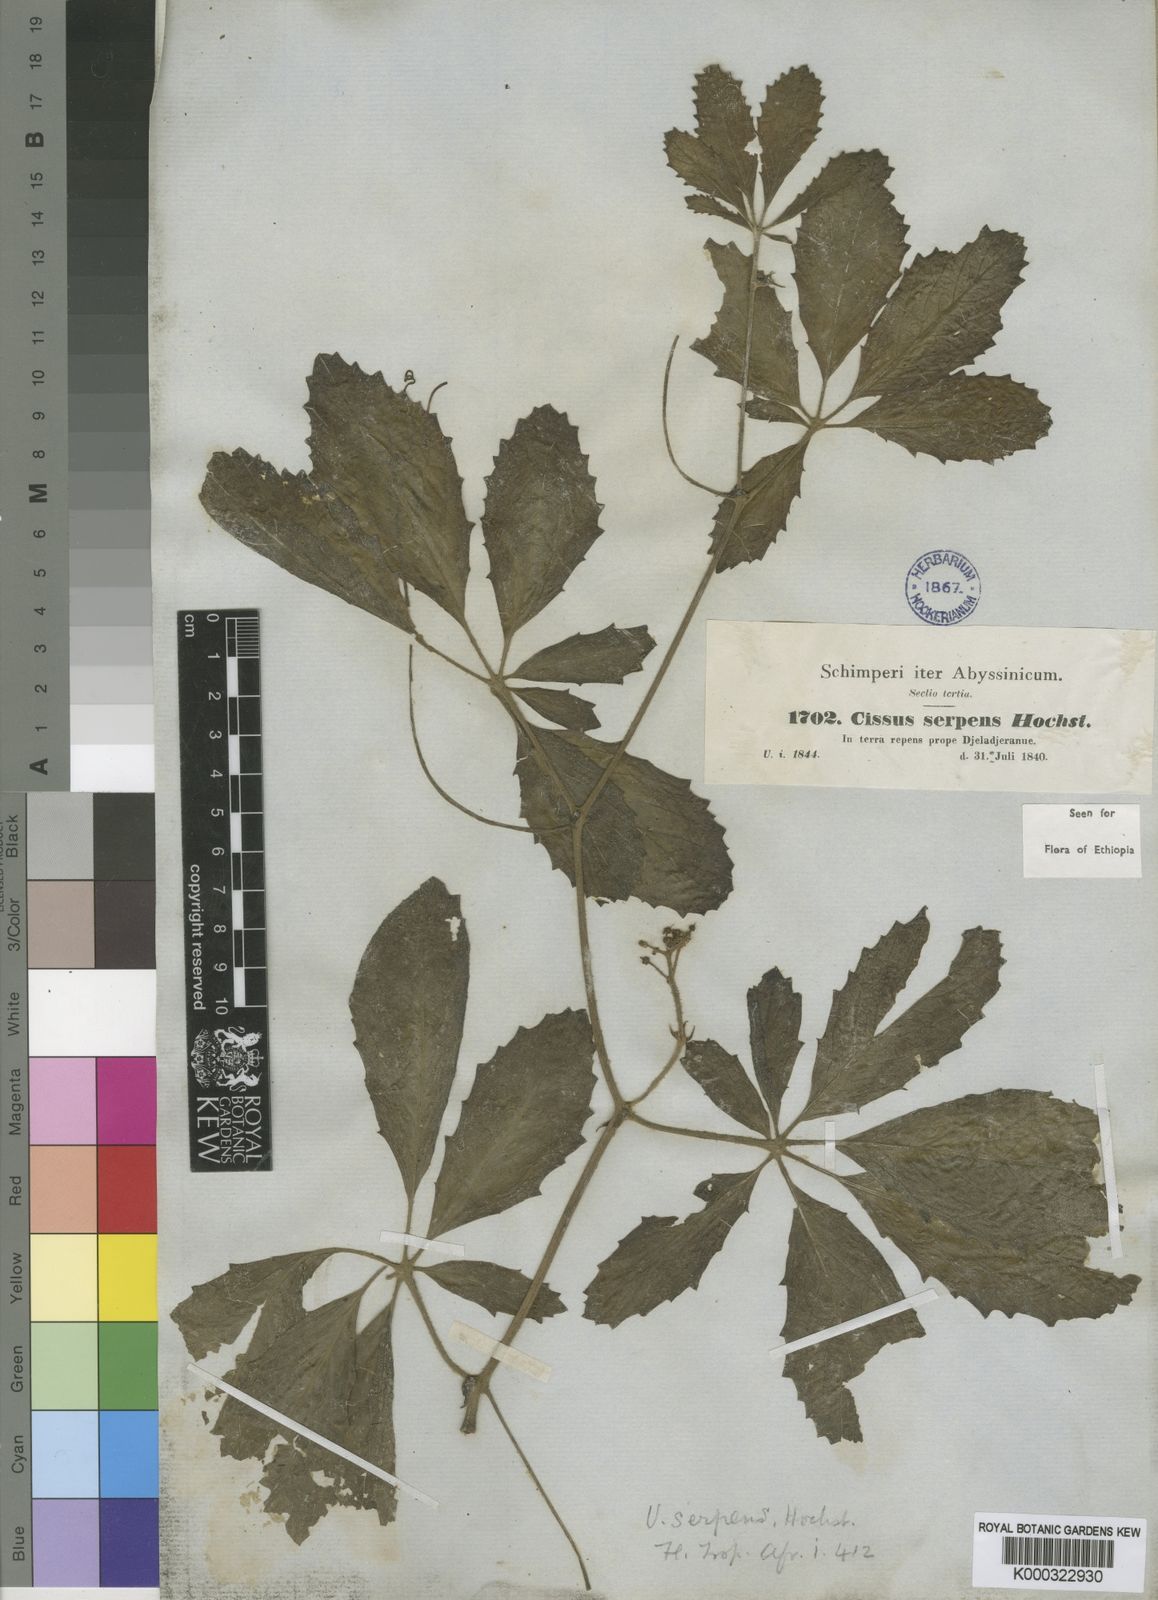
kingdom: Plantae
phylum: Tracheophyta
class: Magnoliopsida
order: Vitales
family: Vitaceae
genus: Cyphostemma
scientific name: Cyphostemma serpens
